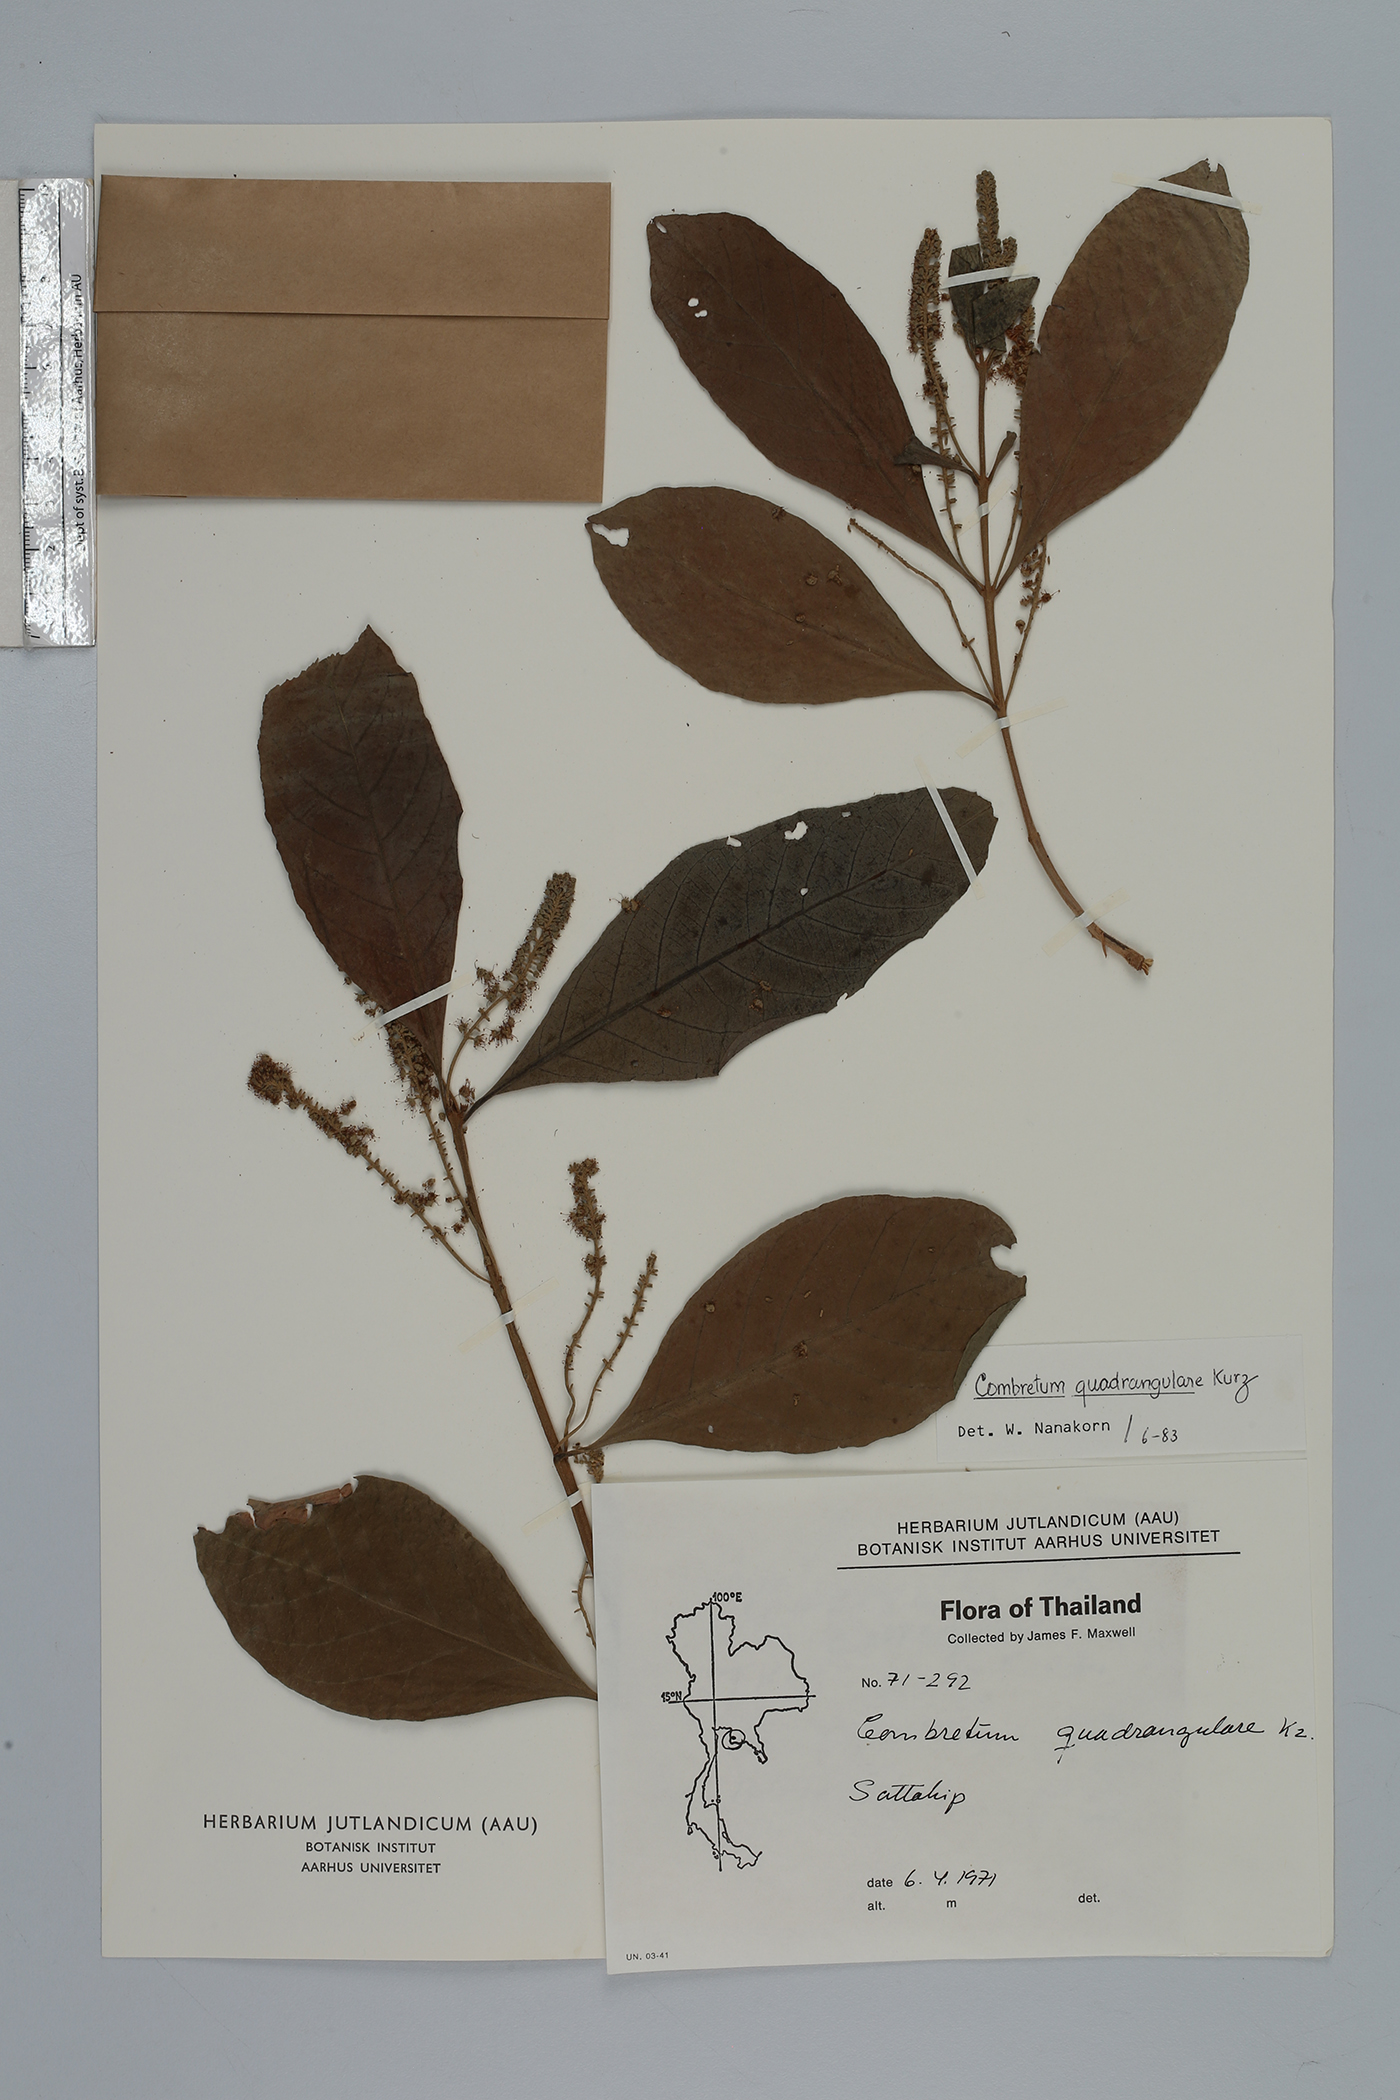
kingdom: Plantae
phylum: Tracheophyta
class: Magnoliopsida
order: Myrtales
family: Combretaceae
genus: Combretum
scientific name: Combretum quadrangulare
